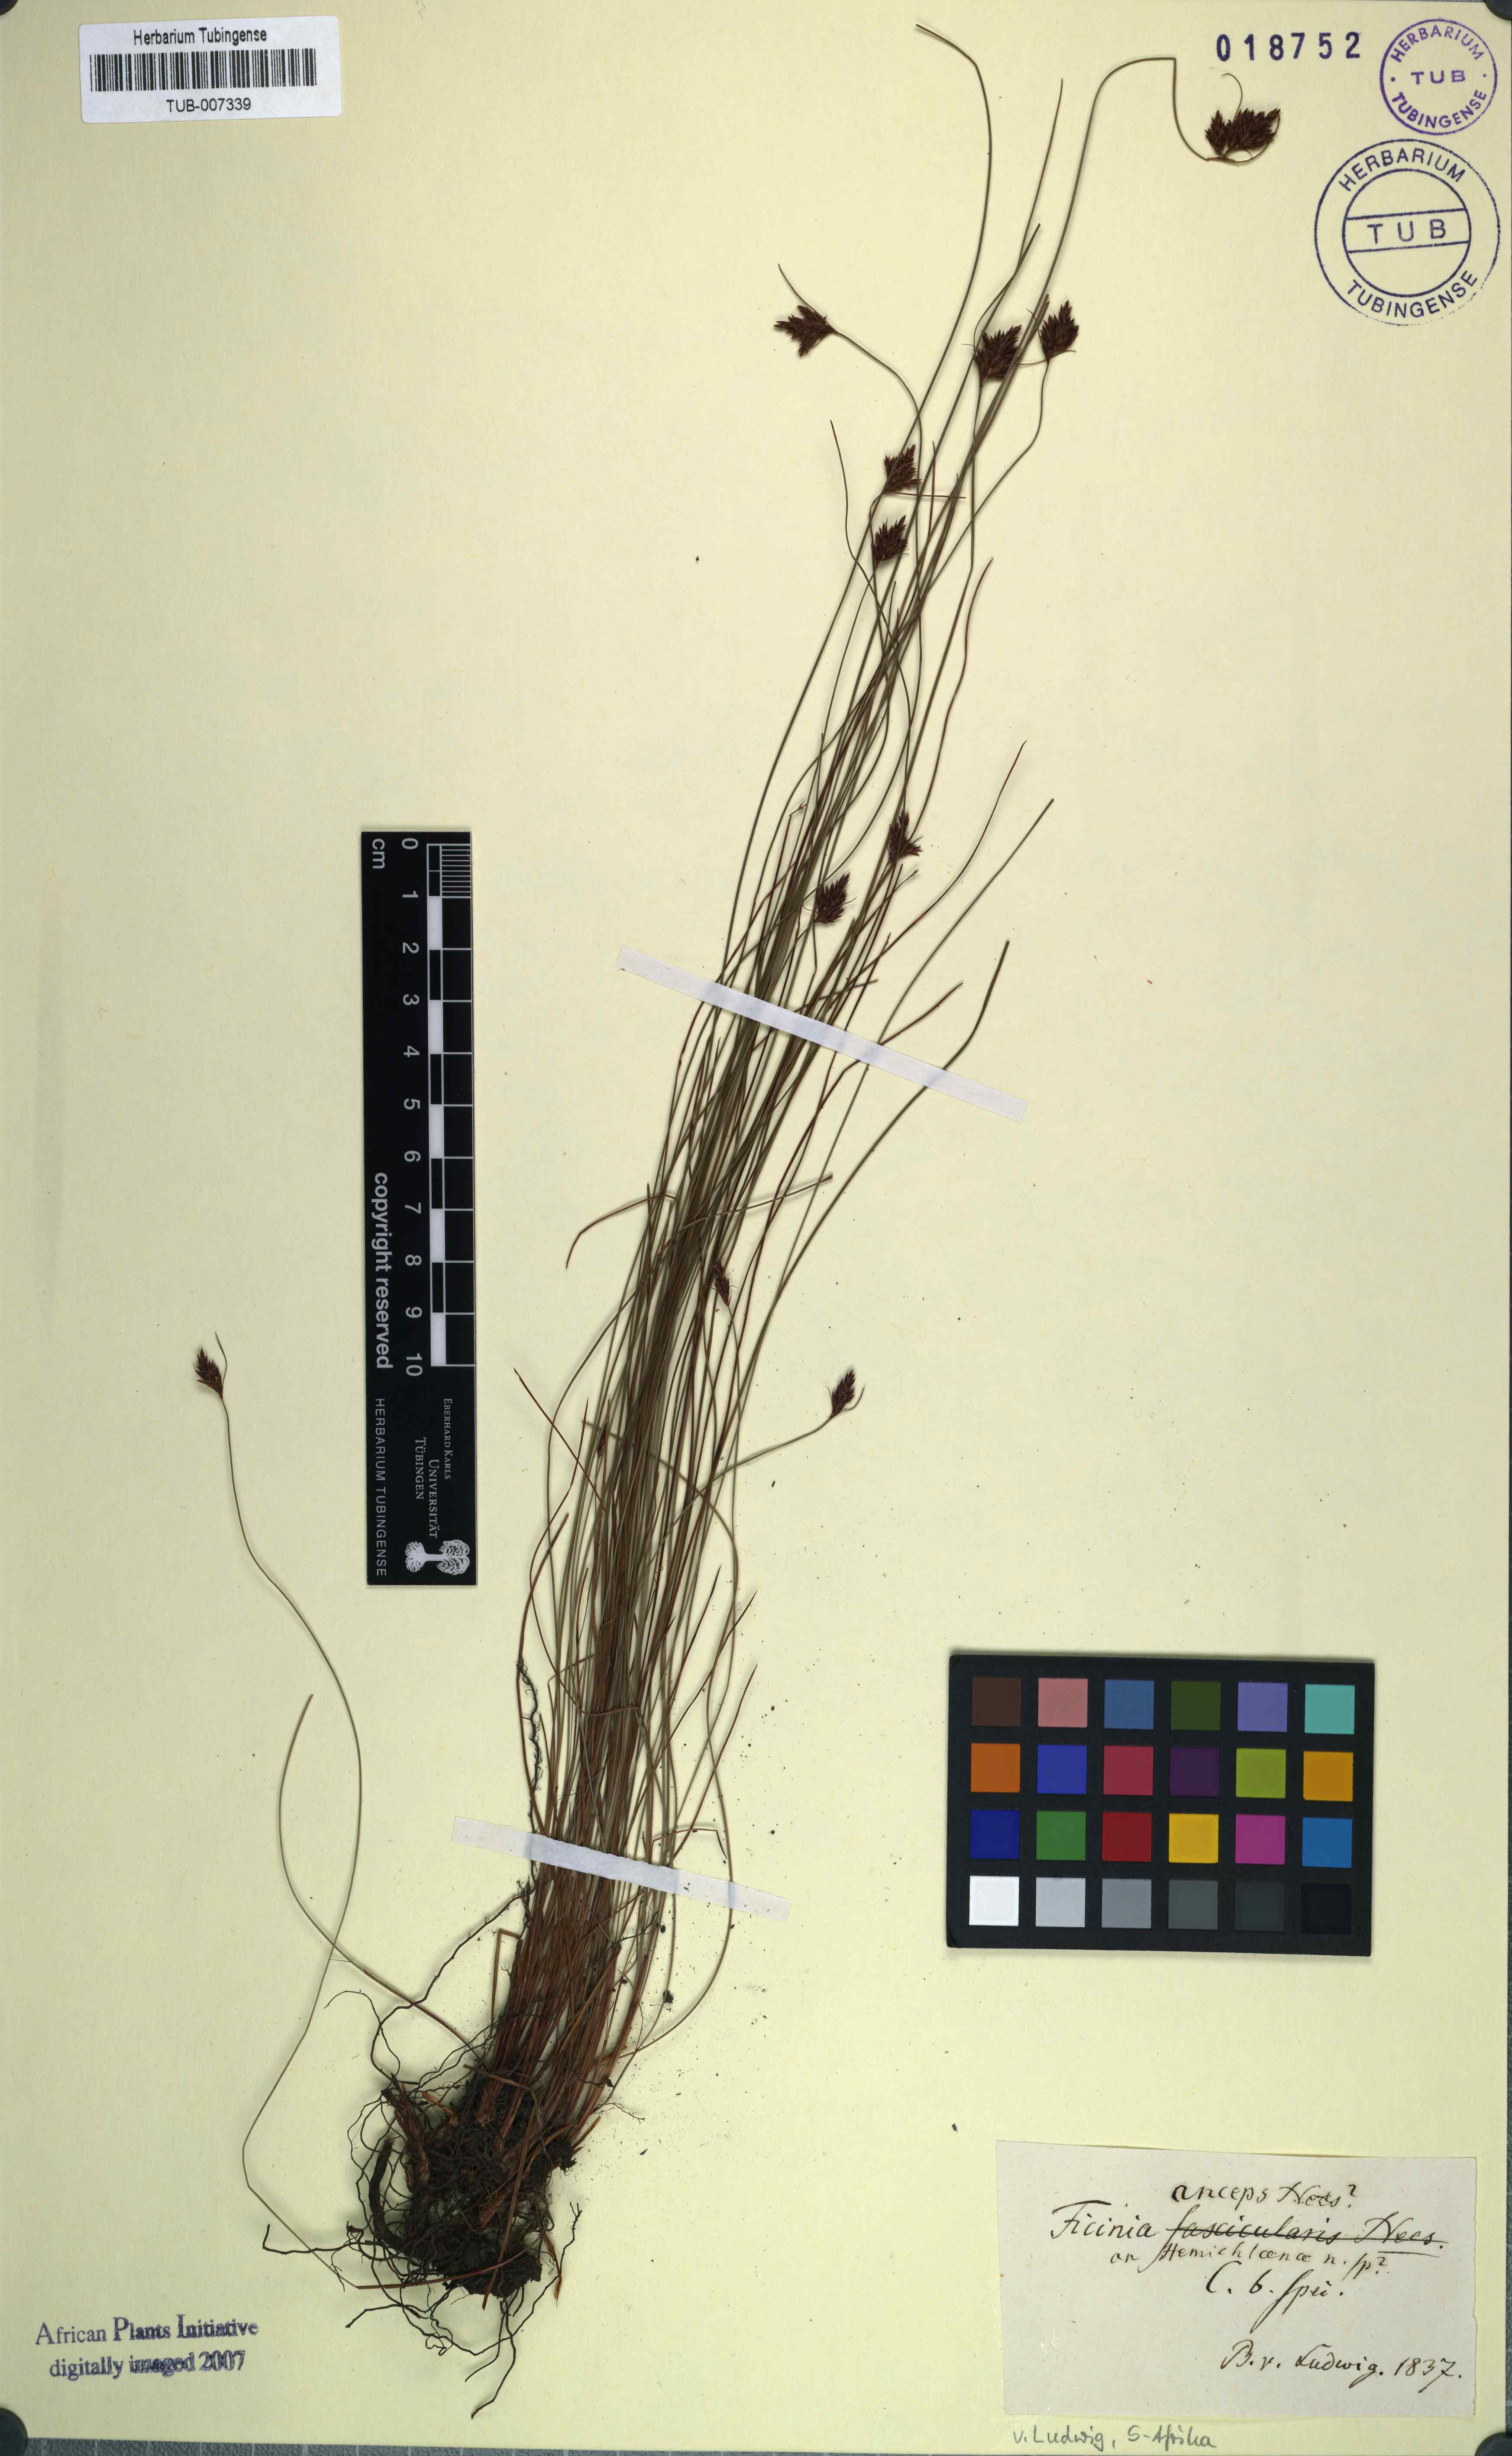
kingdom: Plantae
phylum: Tracheophyta
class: Liliopsida
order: Poales
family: Cyperaceae
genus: Ficinia
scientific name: Ficinia anceps
